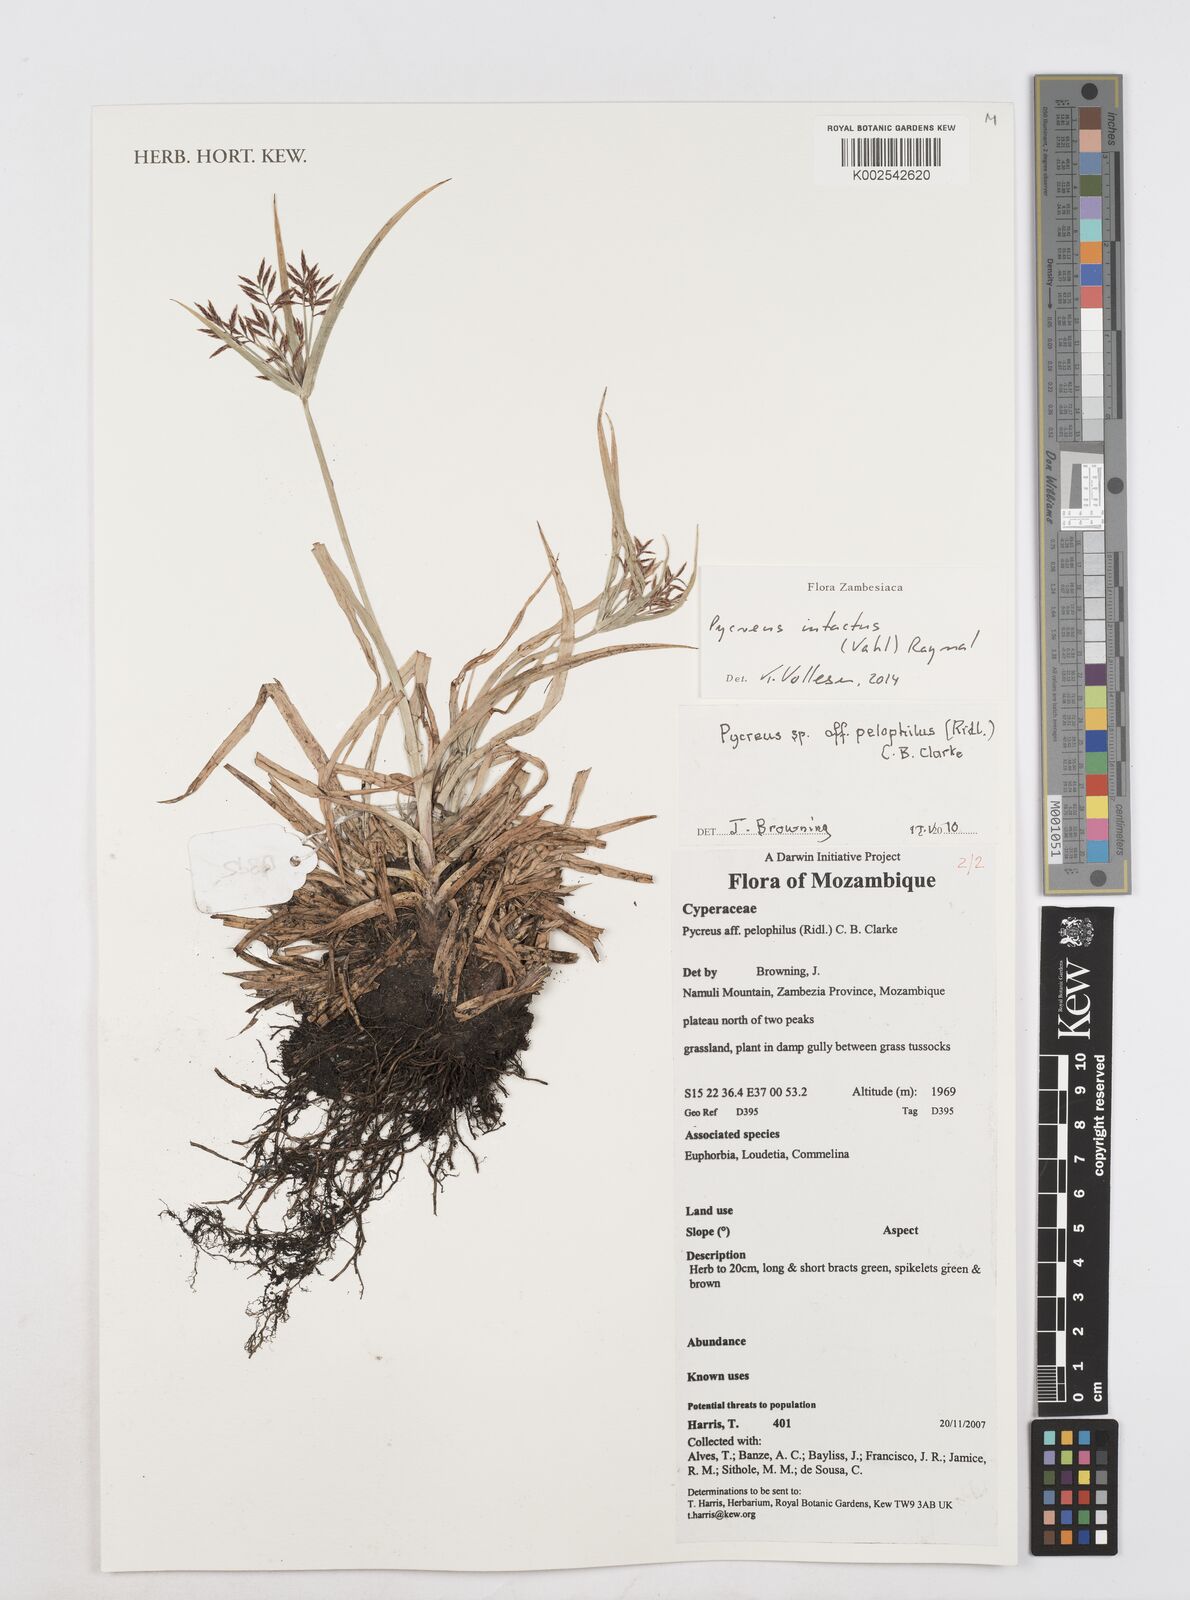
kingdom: Plantae
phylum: Tracheophyta
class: Liliopsida
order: Poales
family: Cyperaceae
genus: Cyperus
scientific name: Cyperus intactus
